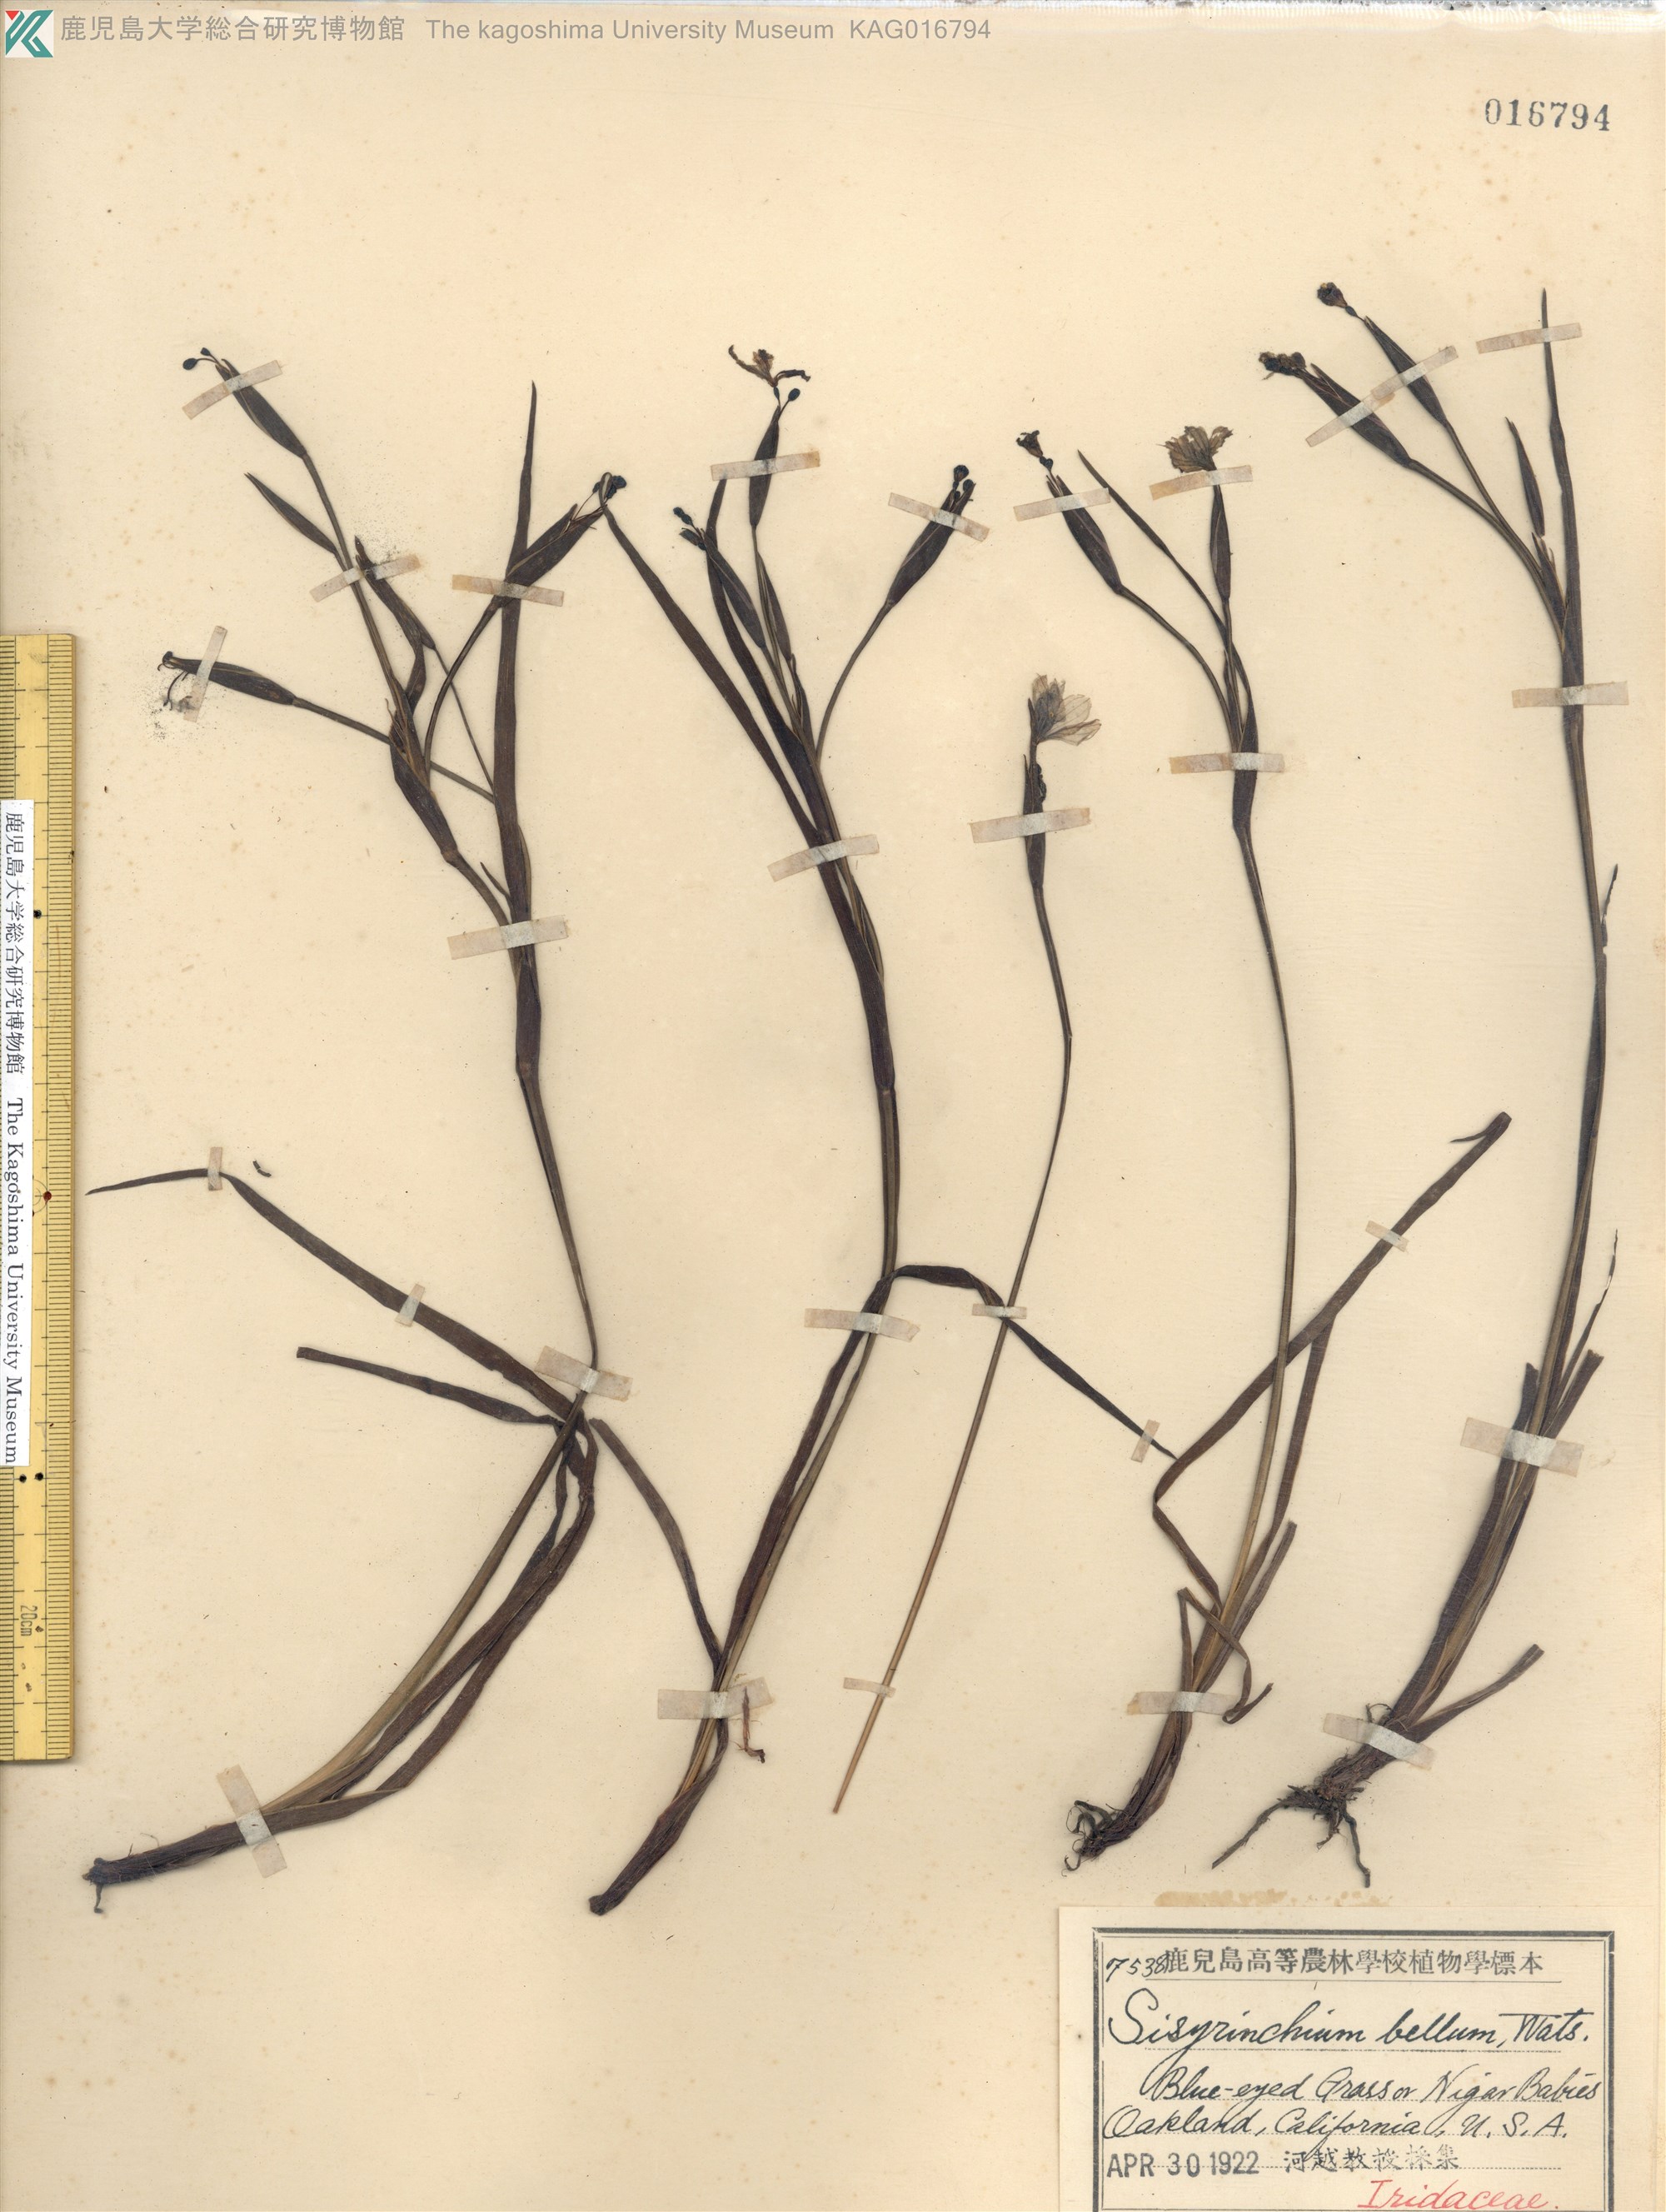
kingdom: Plantae
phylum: Tracheophyta
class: Liliopsida
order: Asparagales
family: Iridaceae
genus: Sisyrinchium
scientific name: Sisyrinchium bellum
